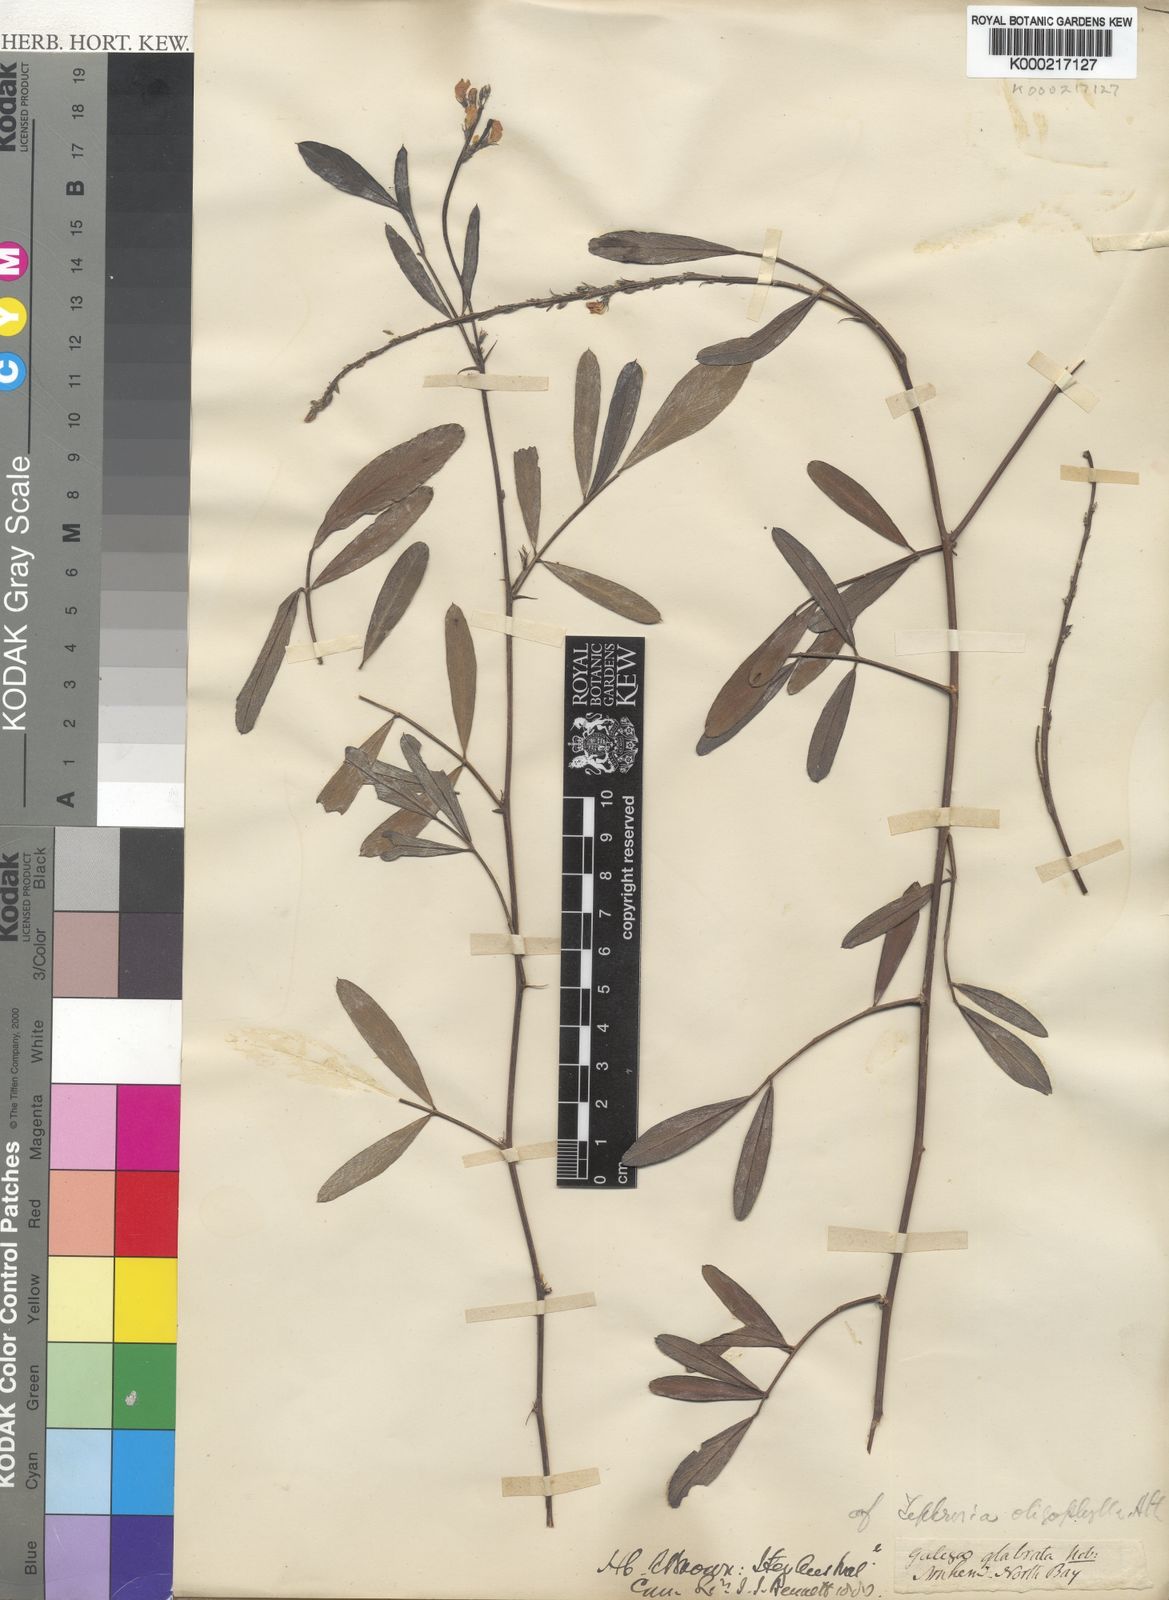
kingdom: Plantae
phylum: Tracheophyta
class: Magnoliopsida
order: Fabales
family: Fabaceae
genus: Tephrosia
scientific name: Tephrosia oligophylla
